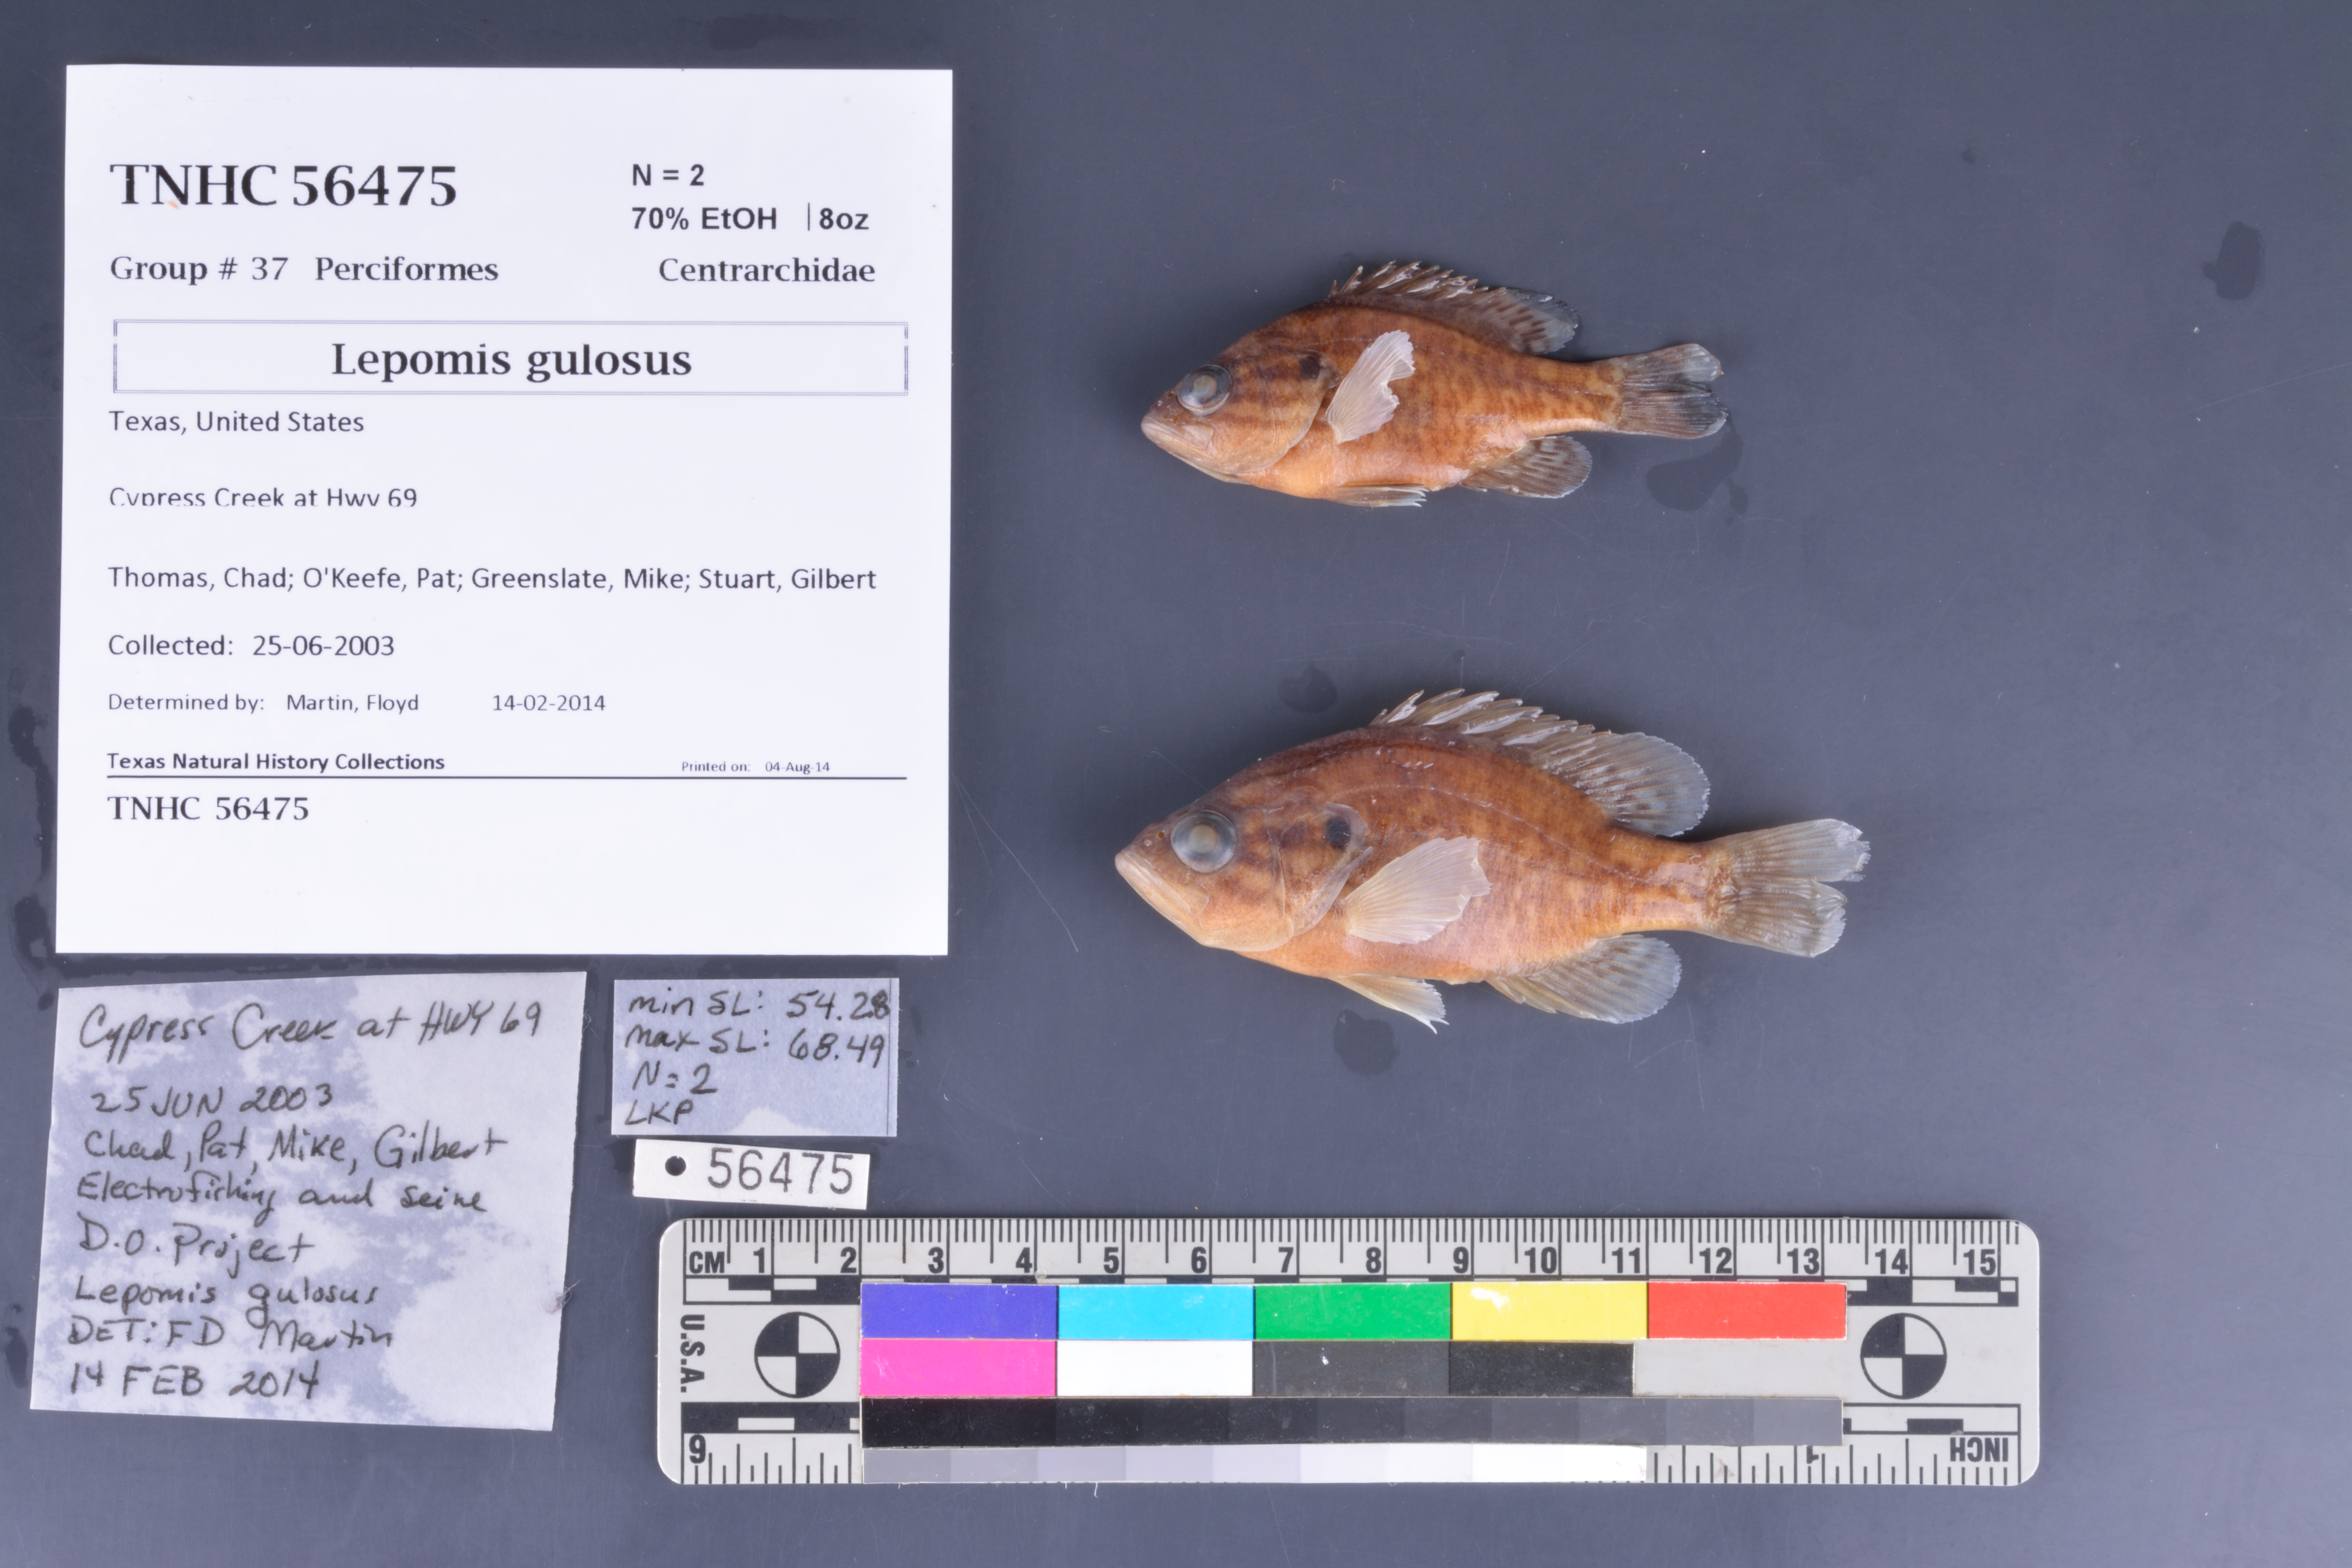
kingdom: Animalia
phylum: Chordata
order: Perciformes
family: Centrarchidae
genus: Lepomis
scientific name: Lepomis gulosus
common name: Warmouth
